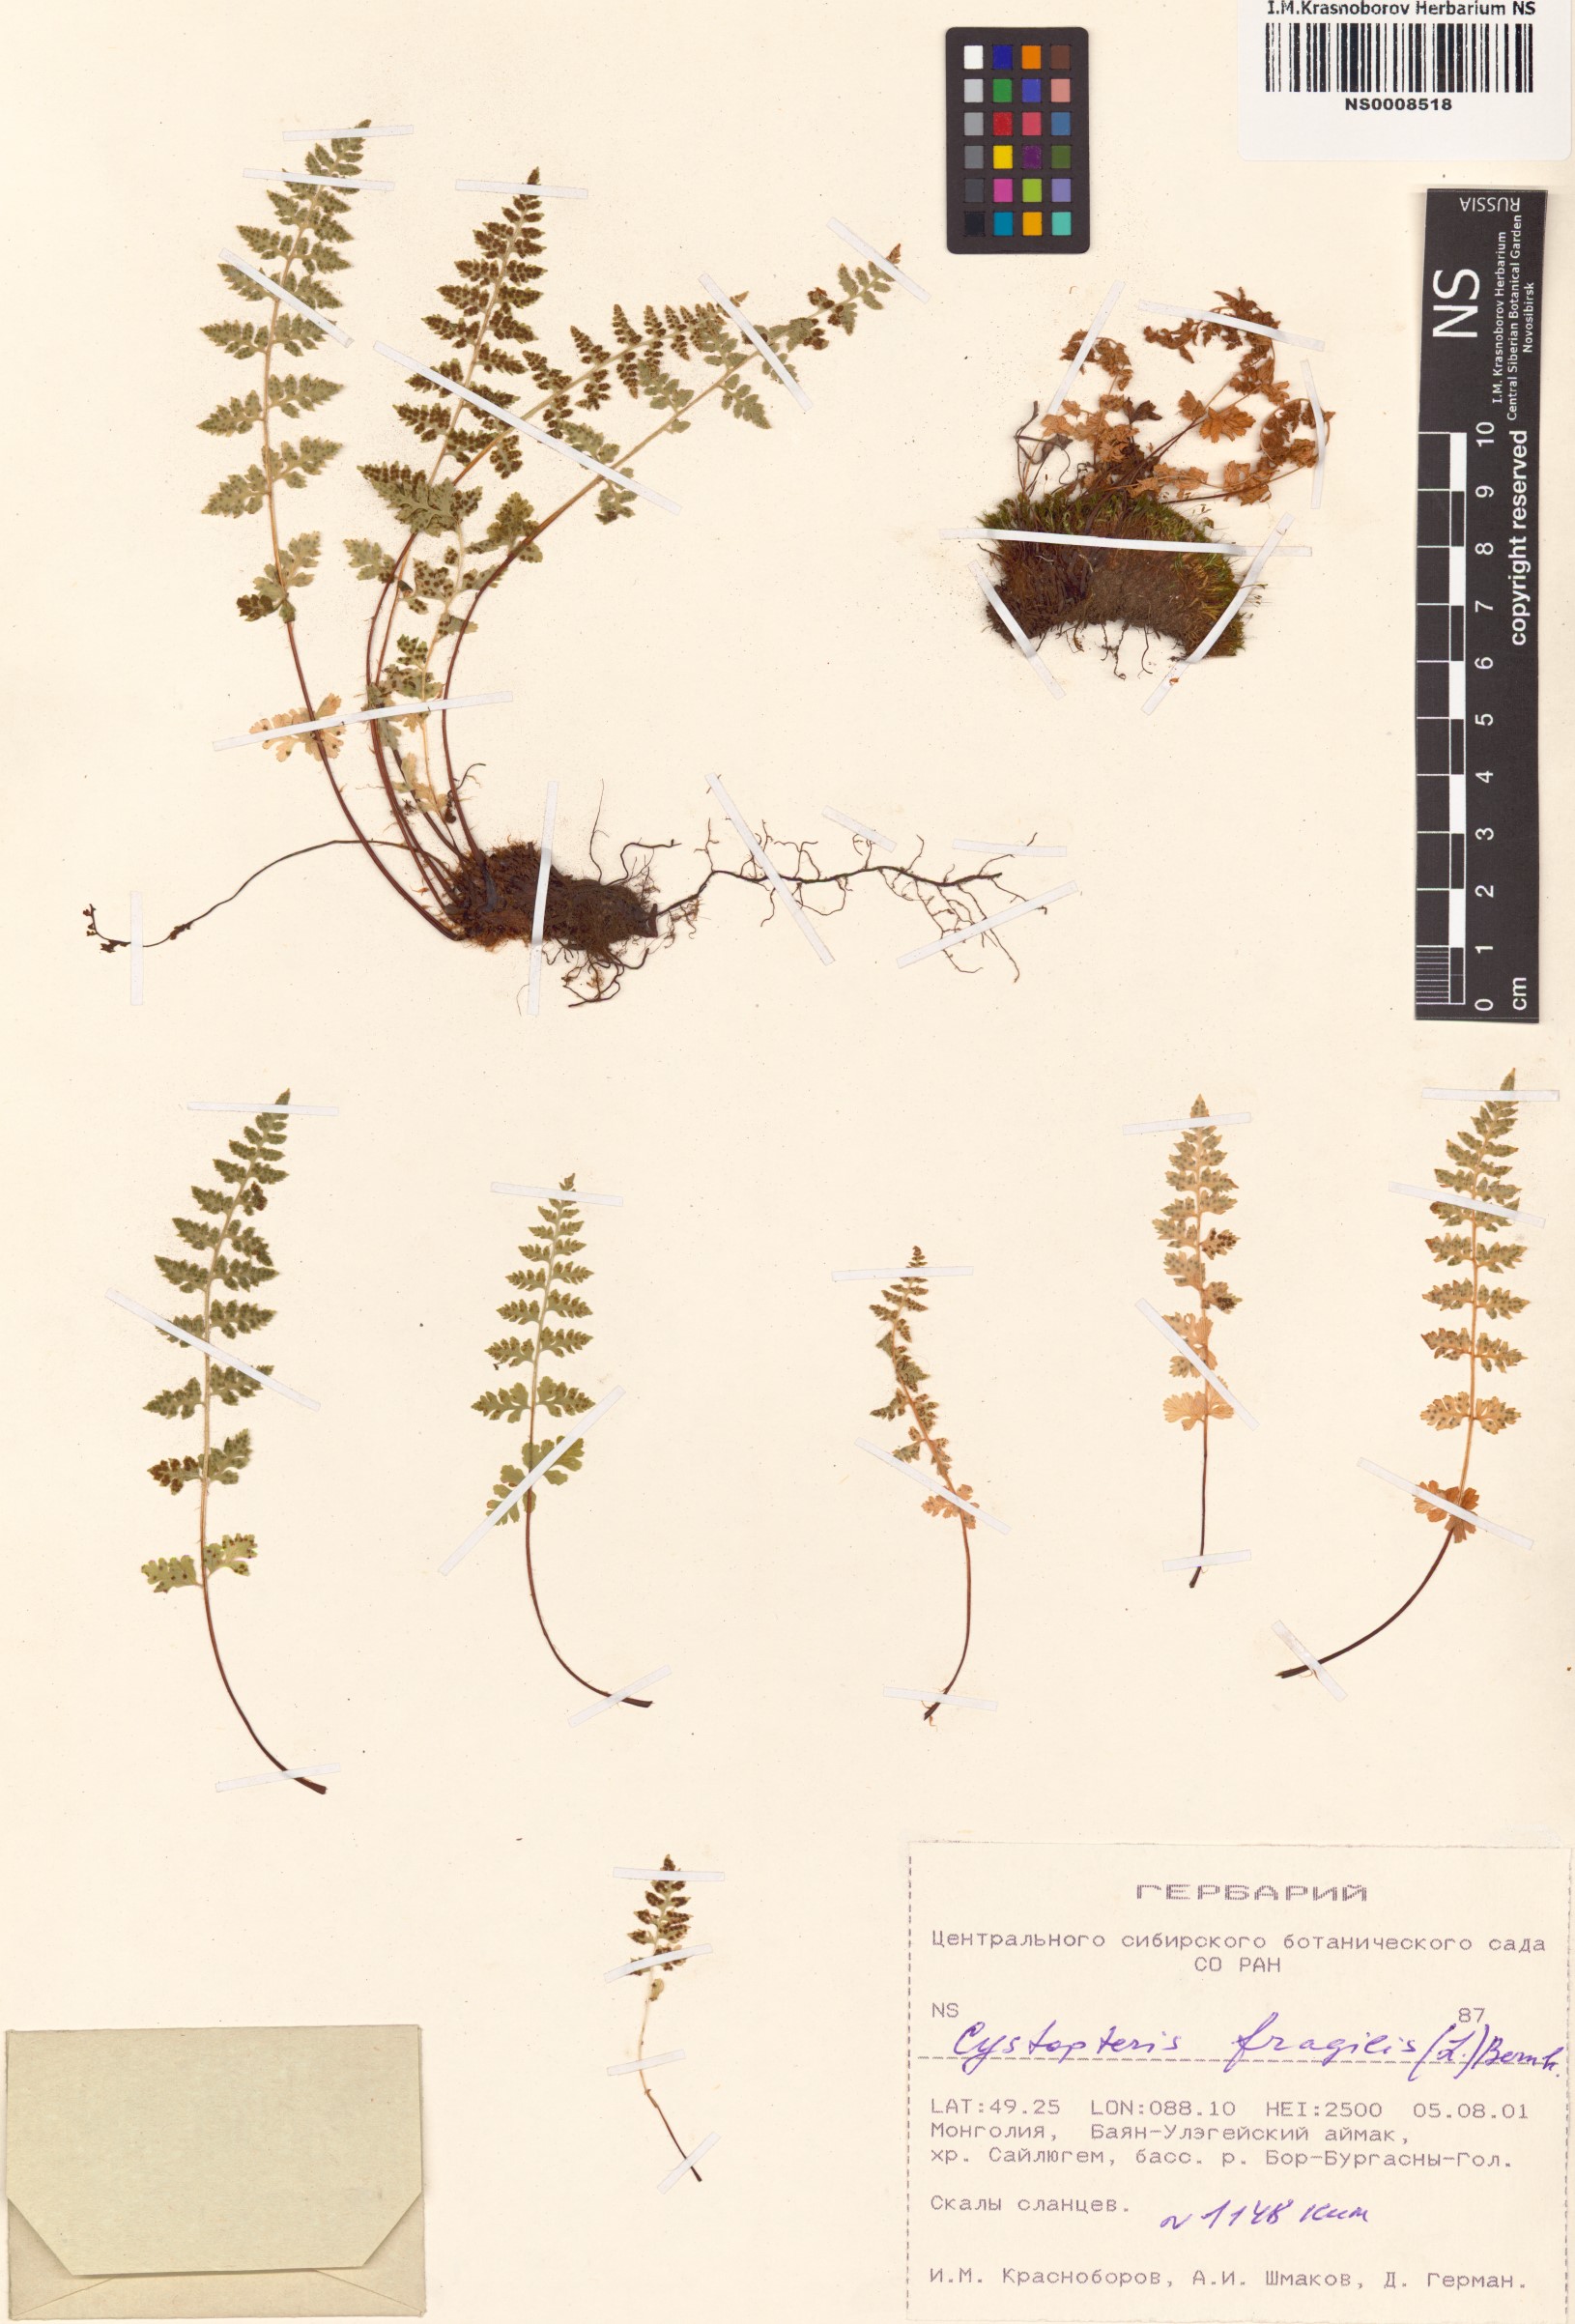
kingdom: Plantae
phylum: Tracheophyta
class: Polypodiopsida
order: Polypodiales
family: Cystopteridaceae
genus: Cystopteris
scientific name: Cystopteris fragilis
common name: Brittle bladder fern
